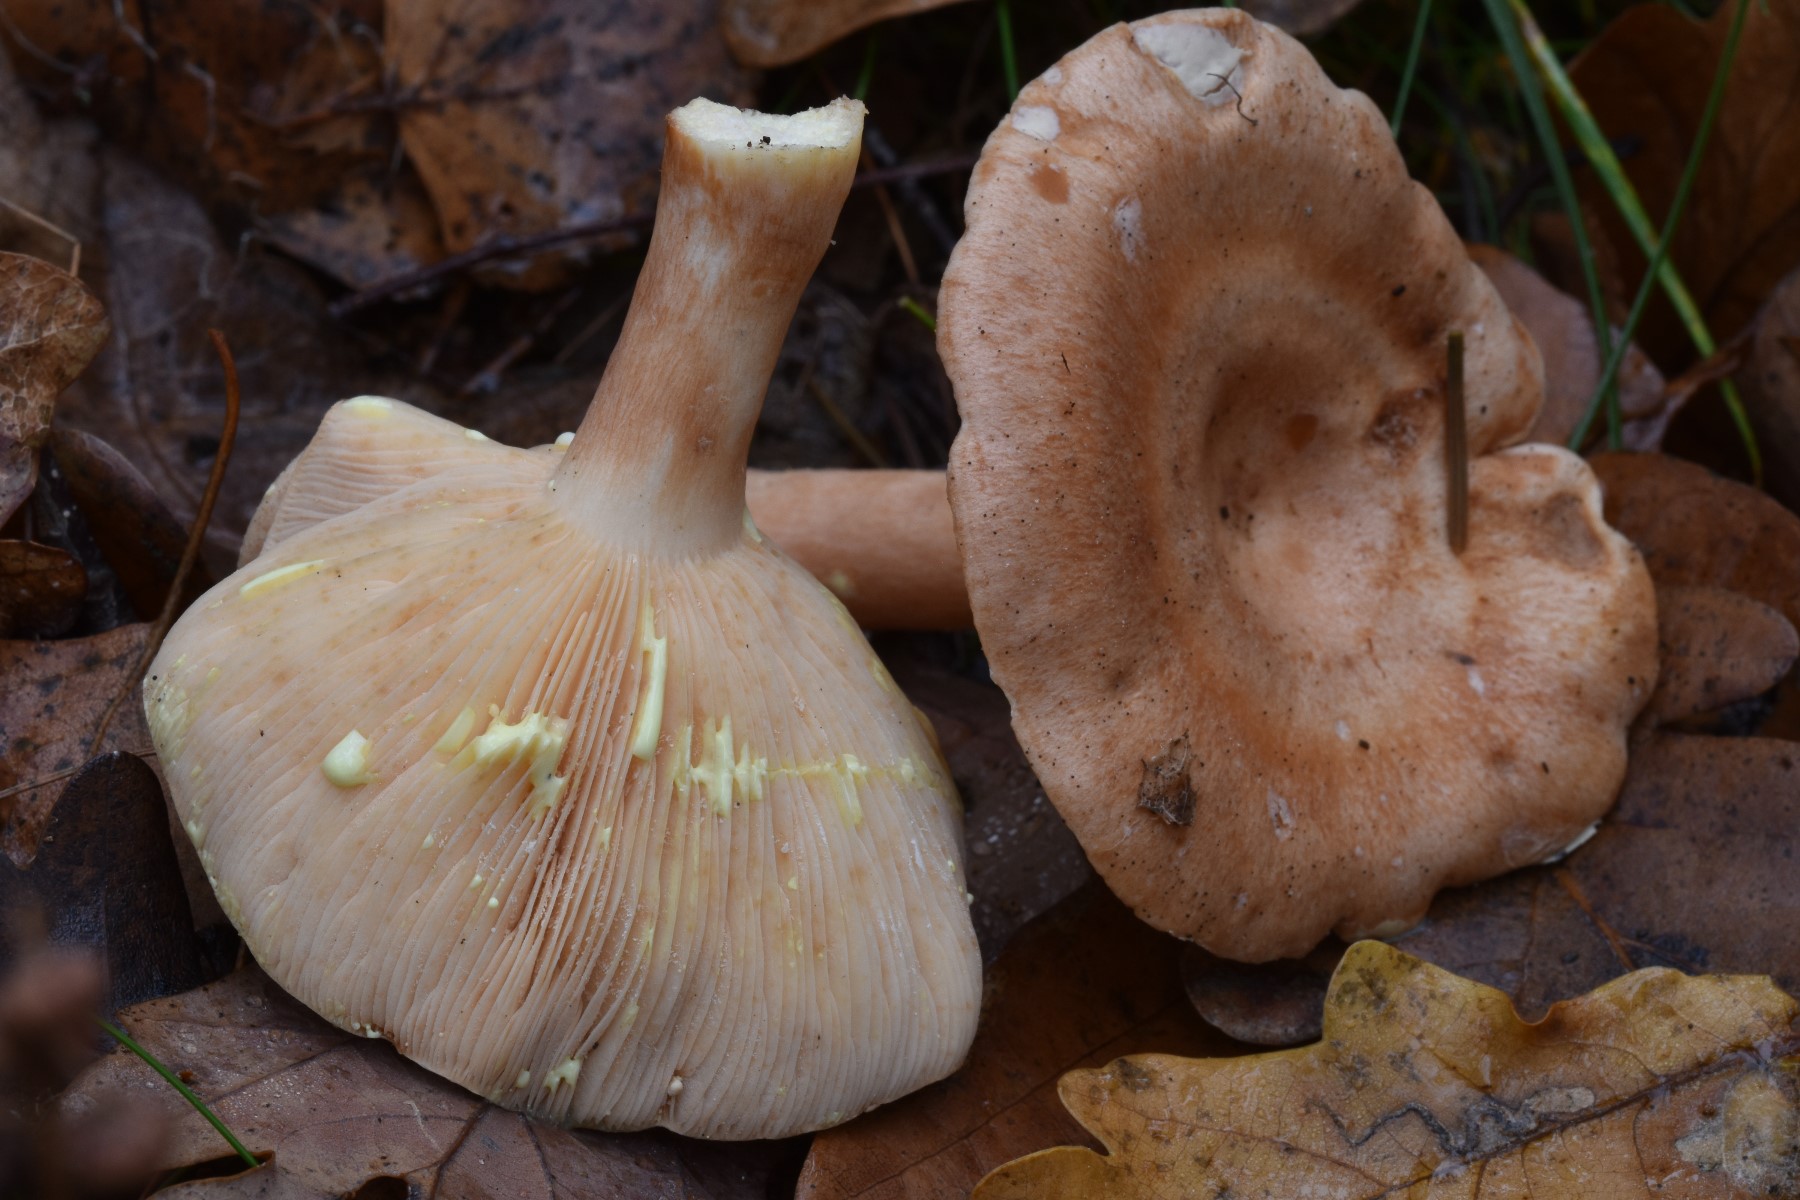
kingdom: Fungi
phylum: Basidiomycota
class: Agaricomycetes
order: Russulales
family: Russulaceae
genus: Lactarius
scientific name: Lactarius chrysorrheus
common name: svovlmælket mælkehat
